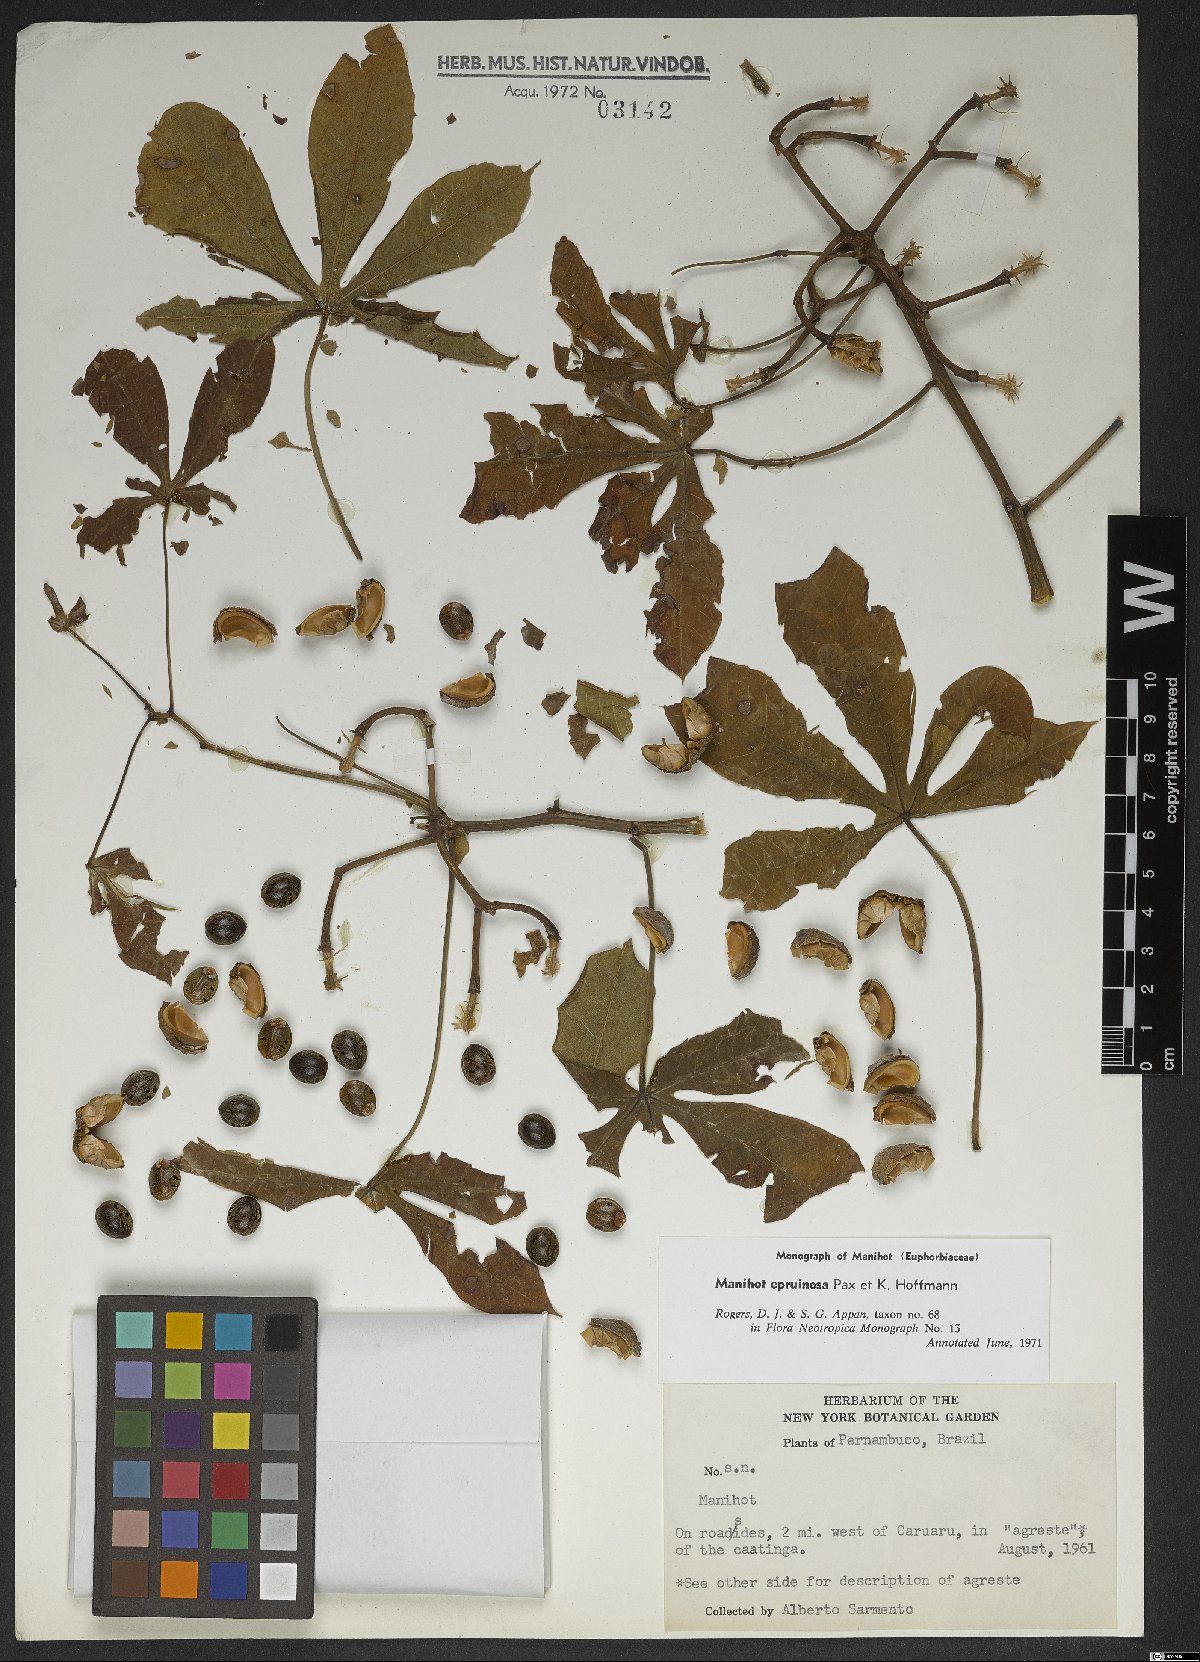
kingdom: Plantae
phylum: Tracheophyta
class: Magnoliopsida
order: Malpighiales
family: Euphorbiaceae
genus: Manihot
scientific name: Manihot epruinosa
